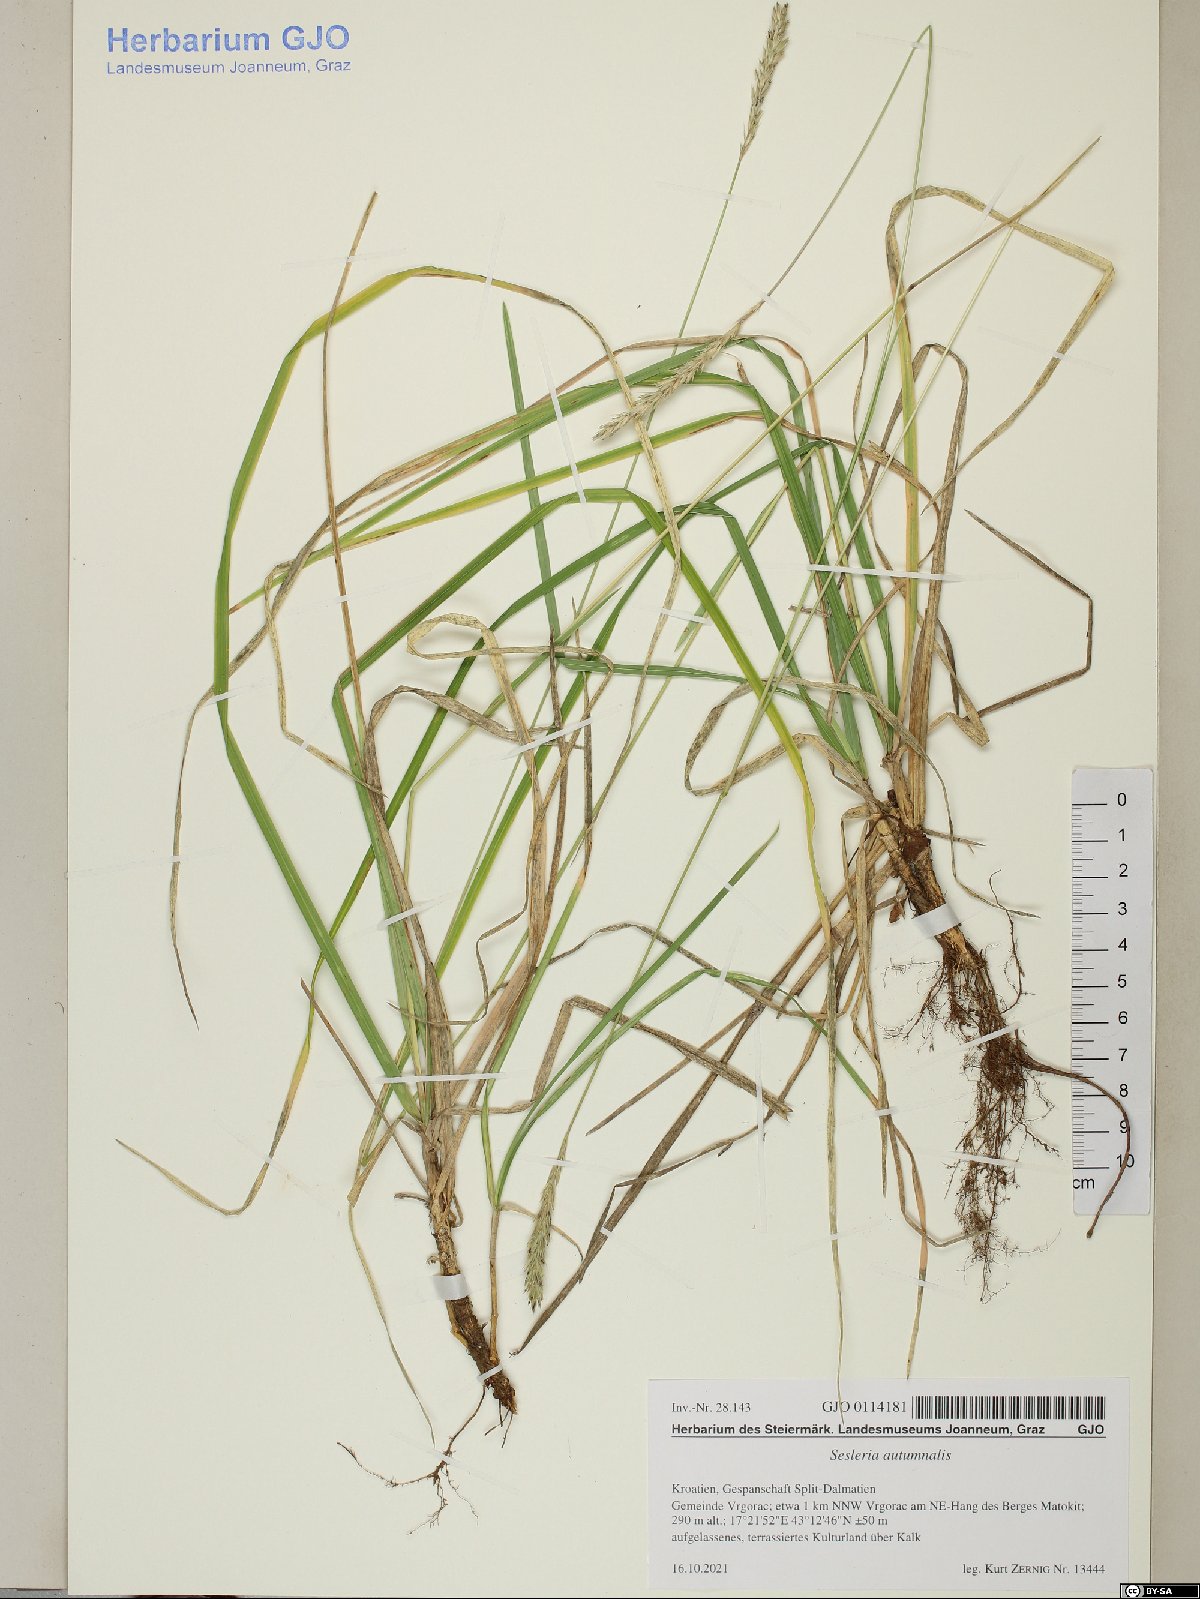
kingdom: Plantae
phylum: Tracheophyta
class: Liliopsida
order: Poales
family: Poaceae
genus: Sesleria
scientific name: Sesleria autumnalis
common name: Autumn moor grass
